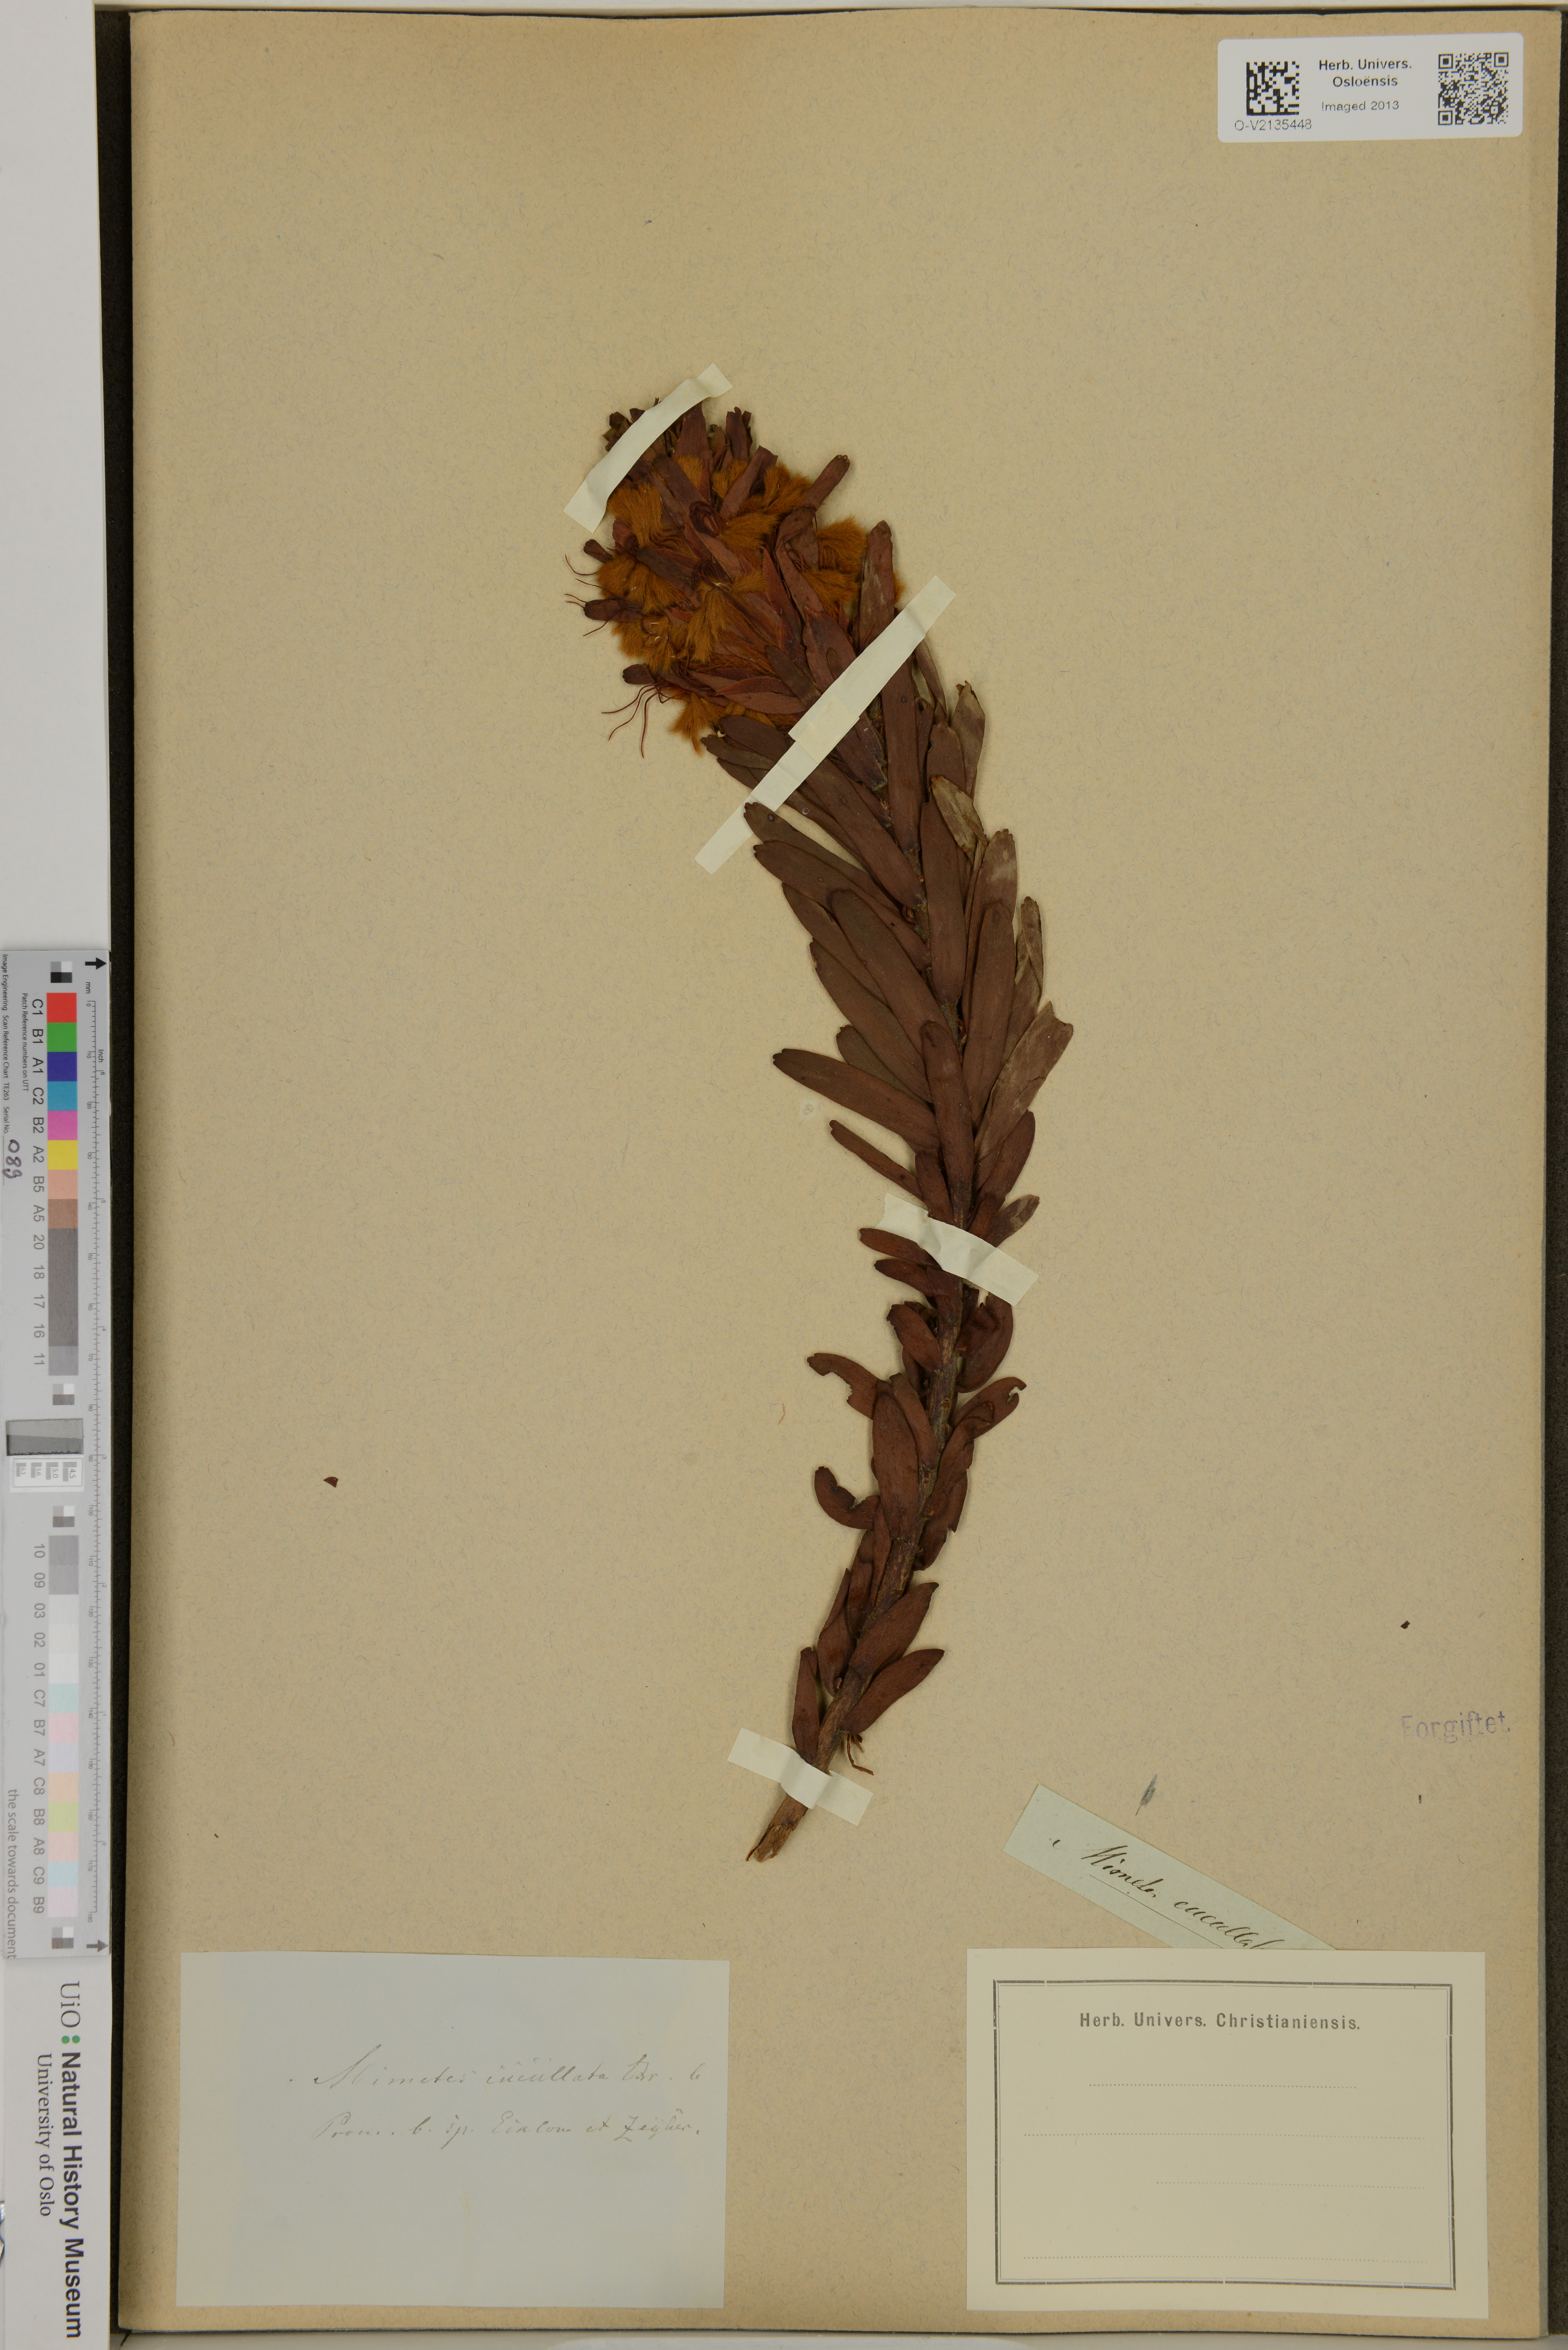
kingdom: Plantae
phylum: Tracheophyta
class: Magnoliopsida
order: Proteales
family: Proteaceae
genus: Mimetes
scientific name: Mimetes cucullatus
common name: Common pagoda
